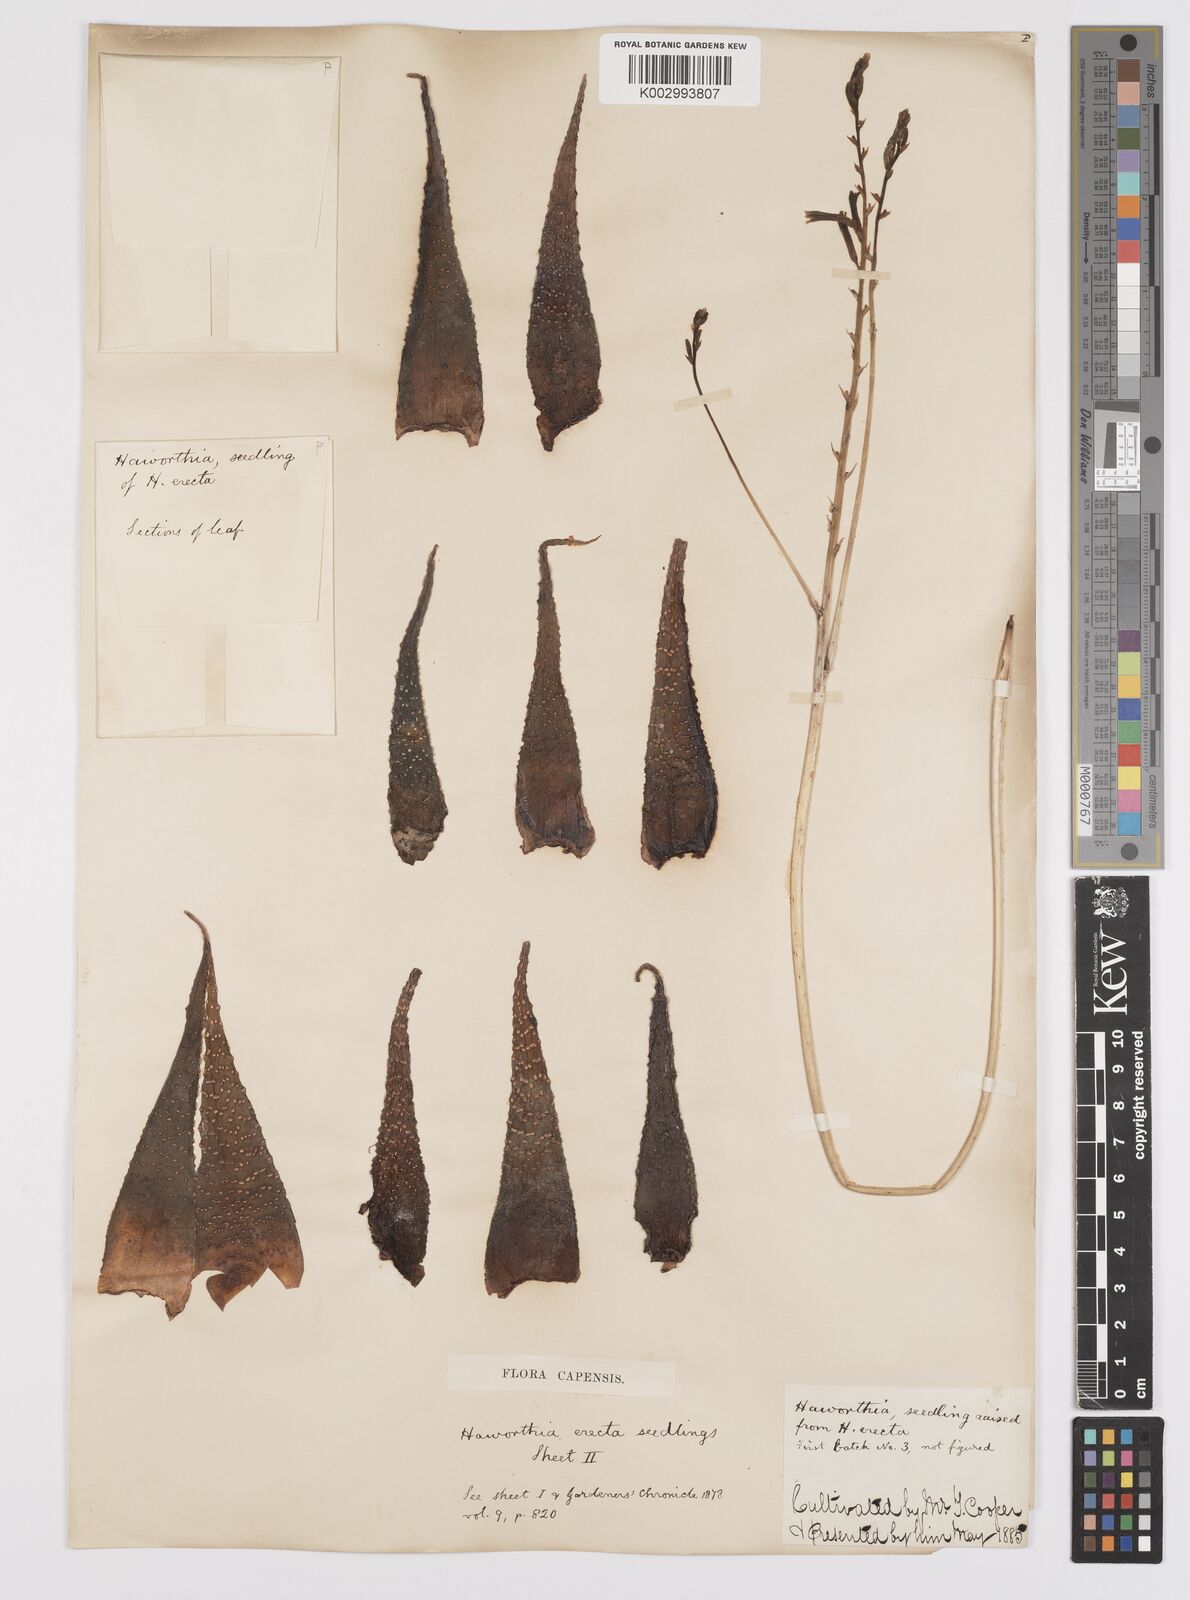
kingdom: Plantae
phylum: Tracheophyta
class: Liliopsida
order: Asparagales
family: Asphodelaceae
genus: Haworthia
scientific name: Haworthia
